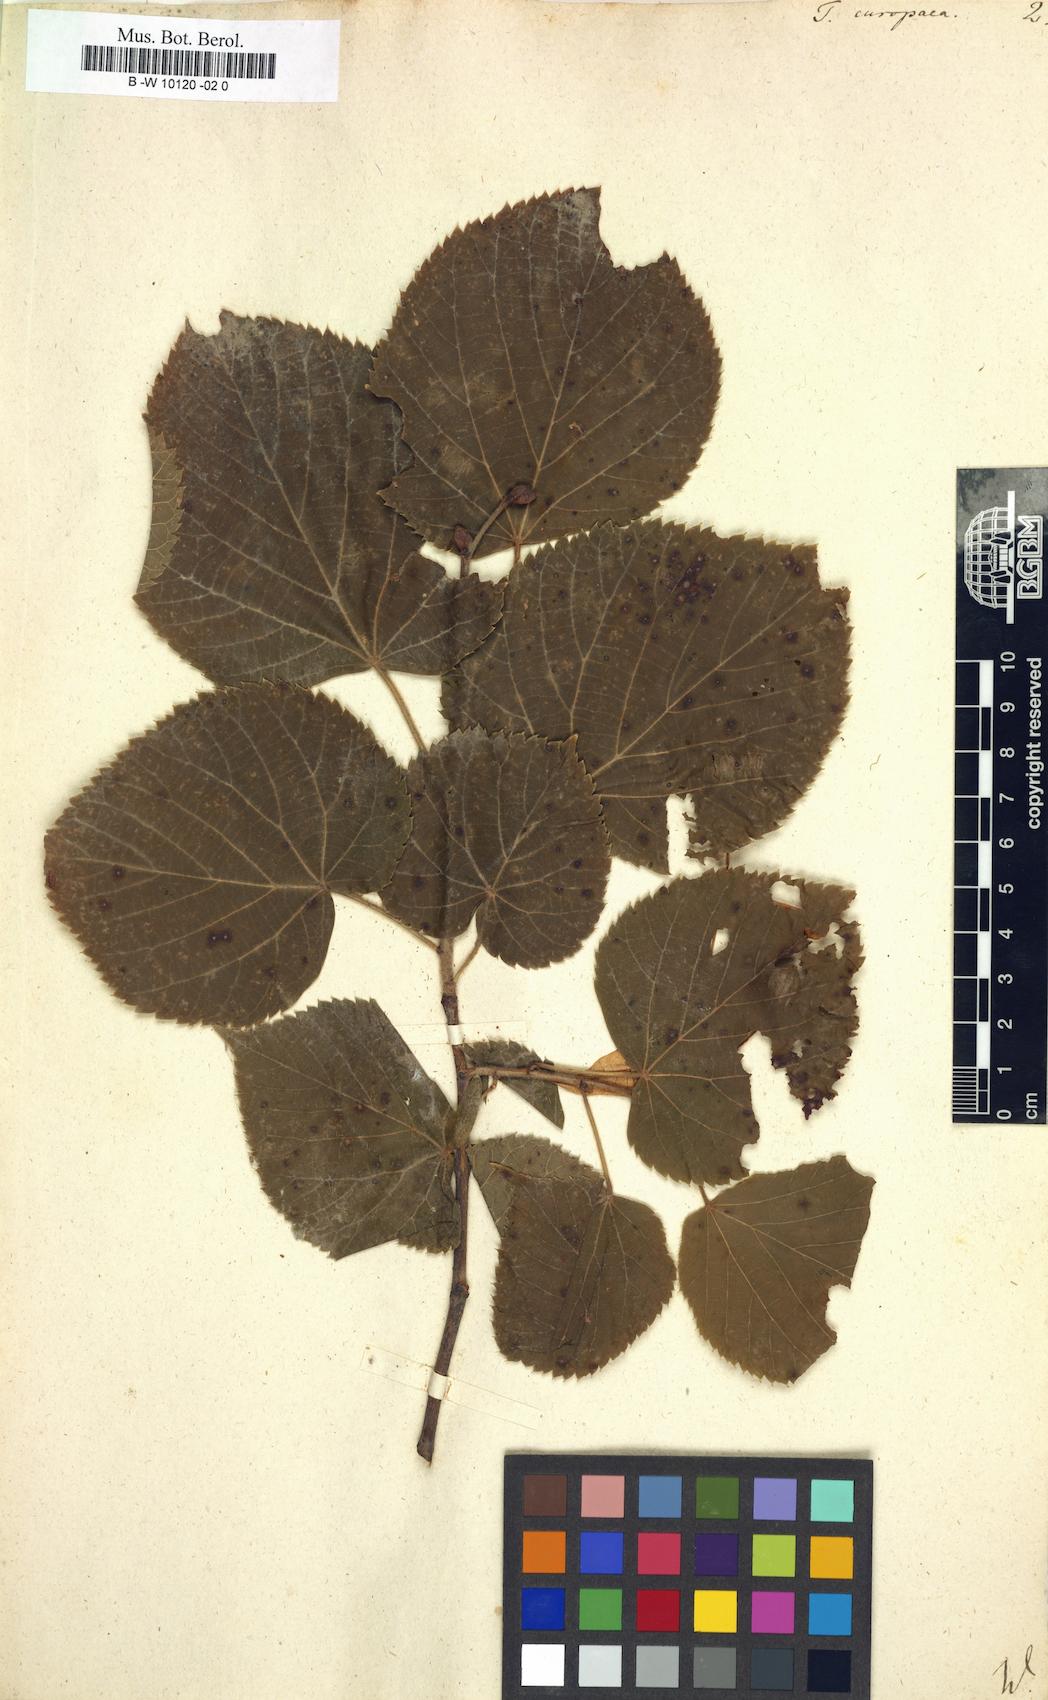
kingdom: Plantae
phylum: Tracheophyta
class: Magnoliopsida
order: Malvales
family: Malvaceae
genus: Tilia
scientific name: Tilia europaea
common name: European linden
